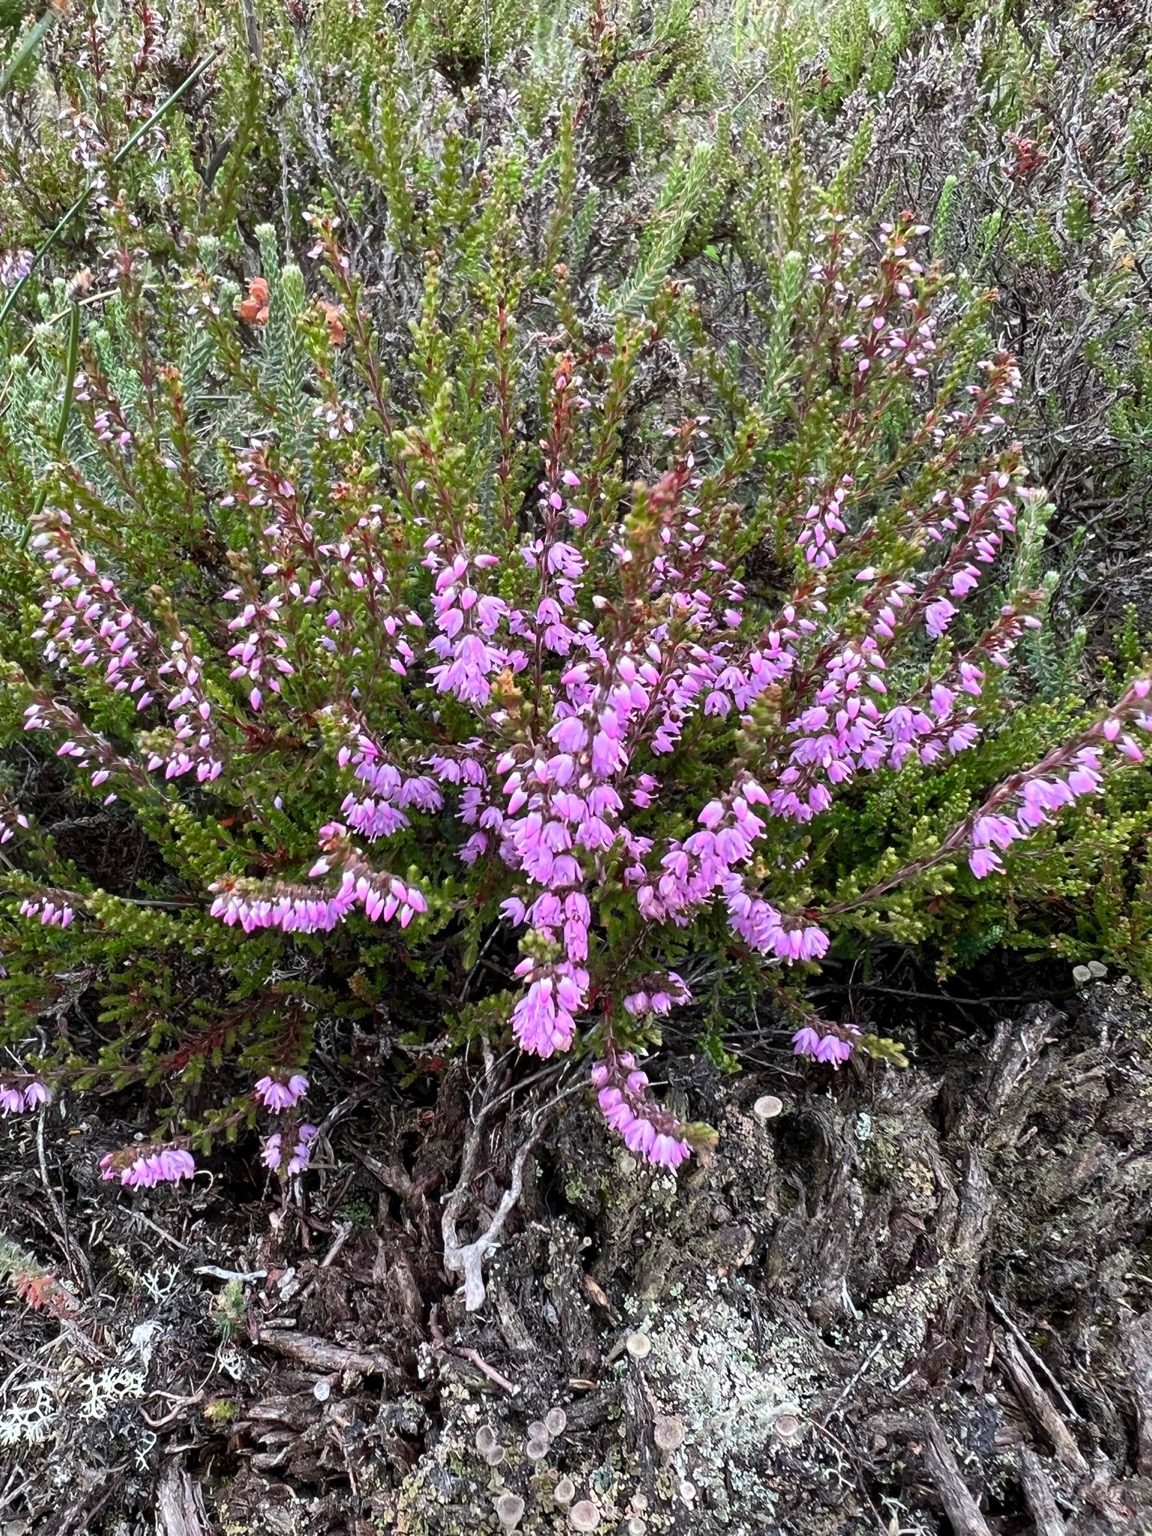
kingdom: Plantae
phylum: Tracheophyta
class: Magnoliopsida
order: Ericales
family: Ericaceae
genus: Calluna
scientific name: Calluna vulgaris
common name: Hedelyng
